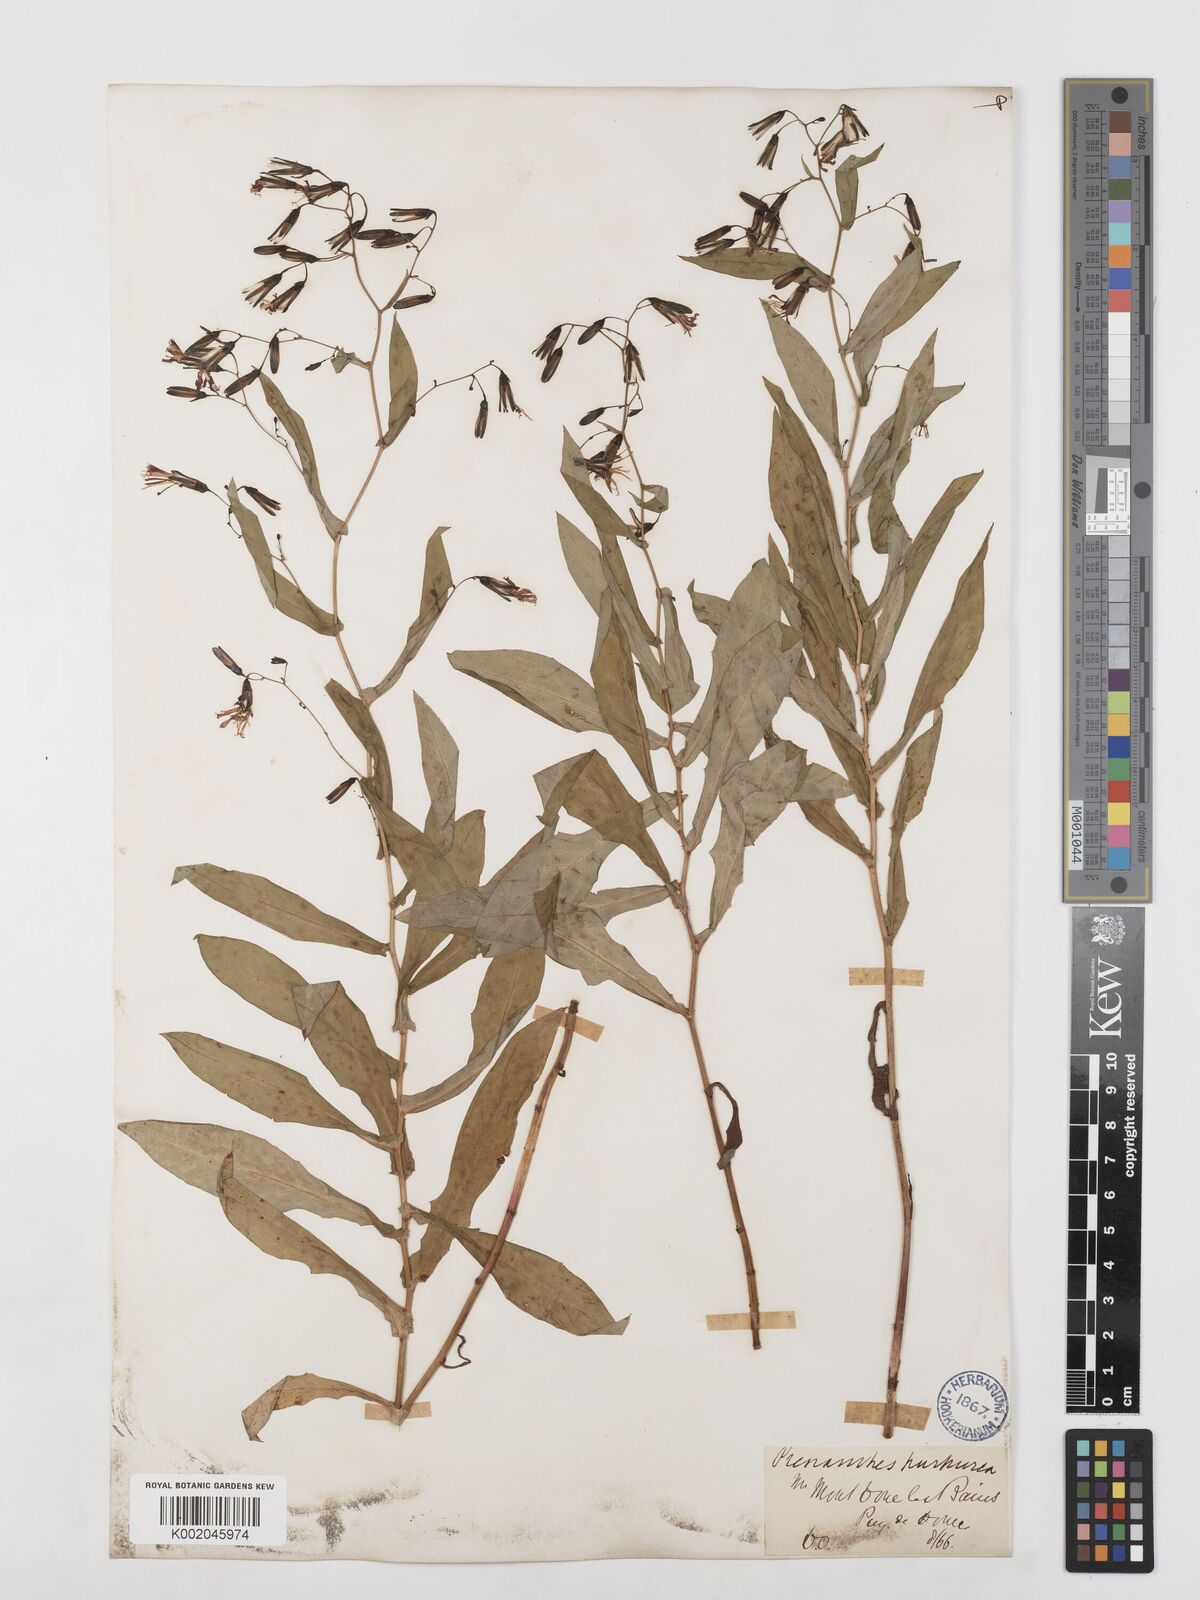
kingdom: Plantae
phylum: Tracheophyta
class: Magnoliopsida
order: Asterales
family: Asteraceae
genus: Prenanthes
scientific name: Prenanthes purpurea
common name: Purple lettuce
